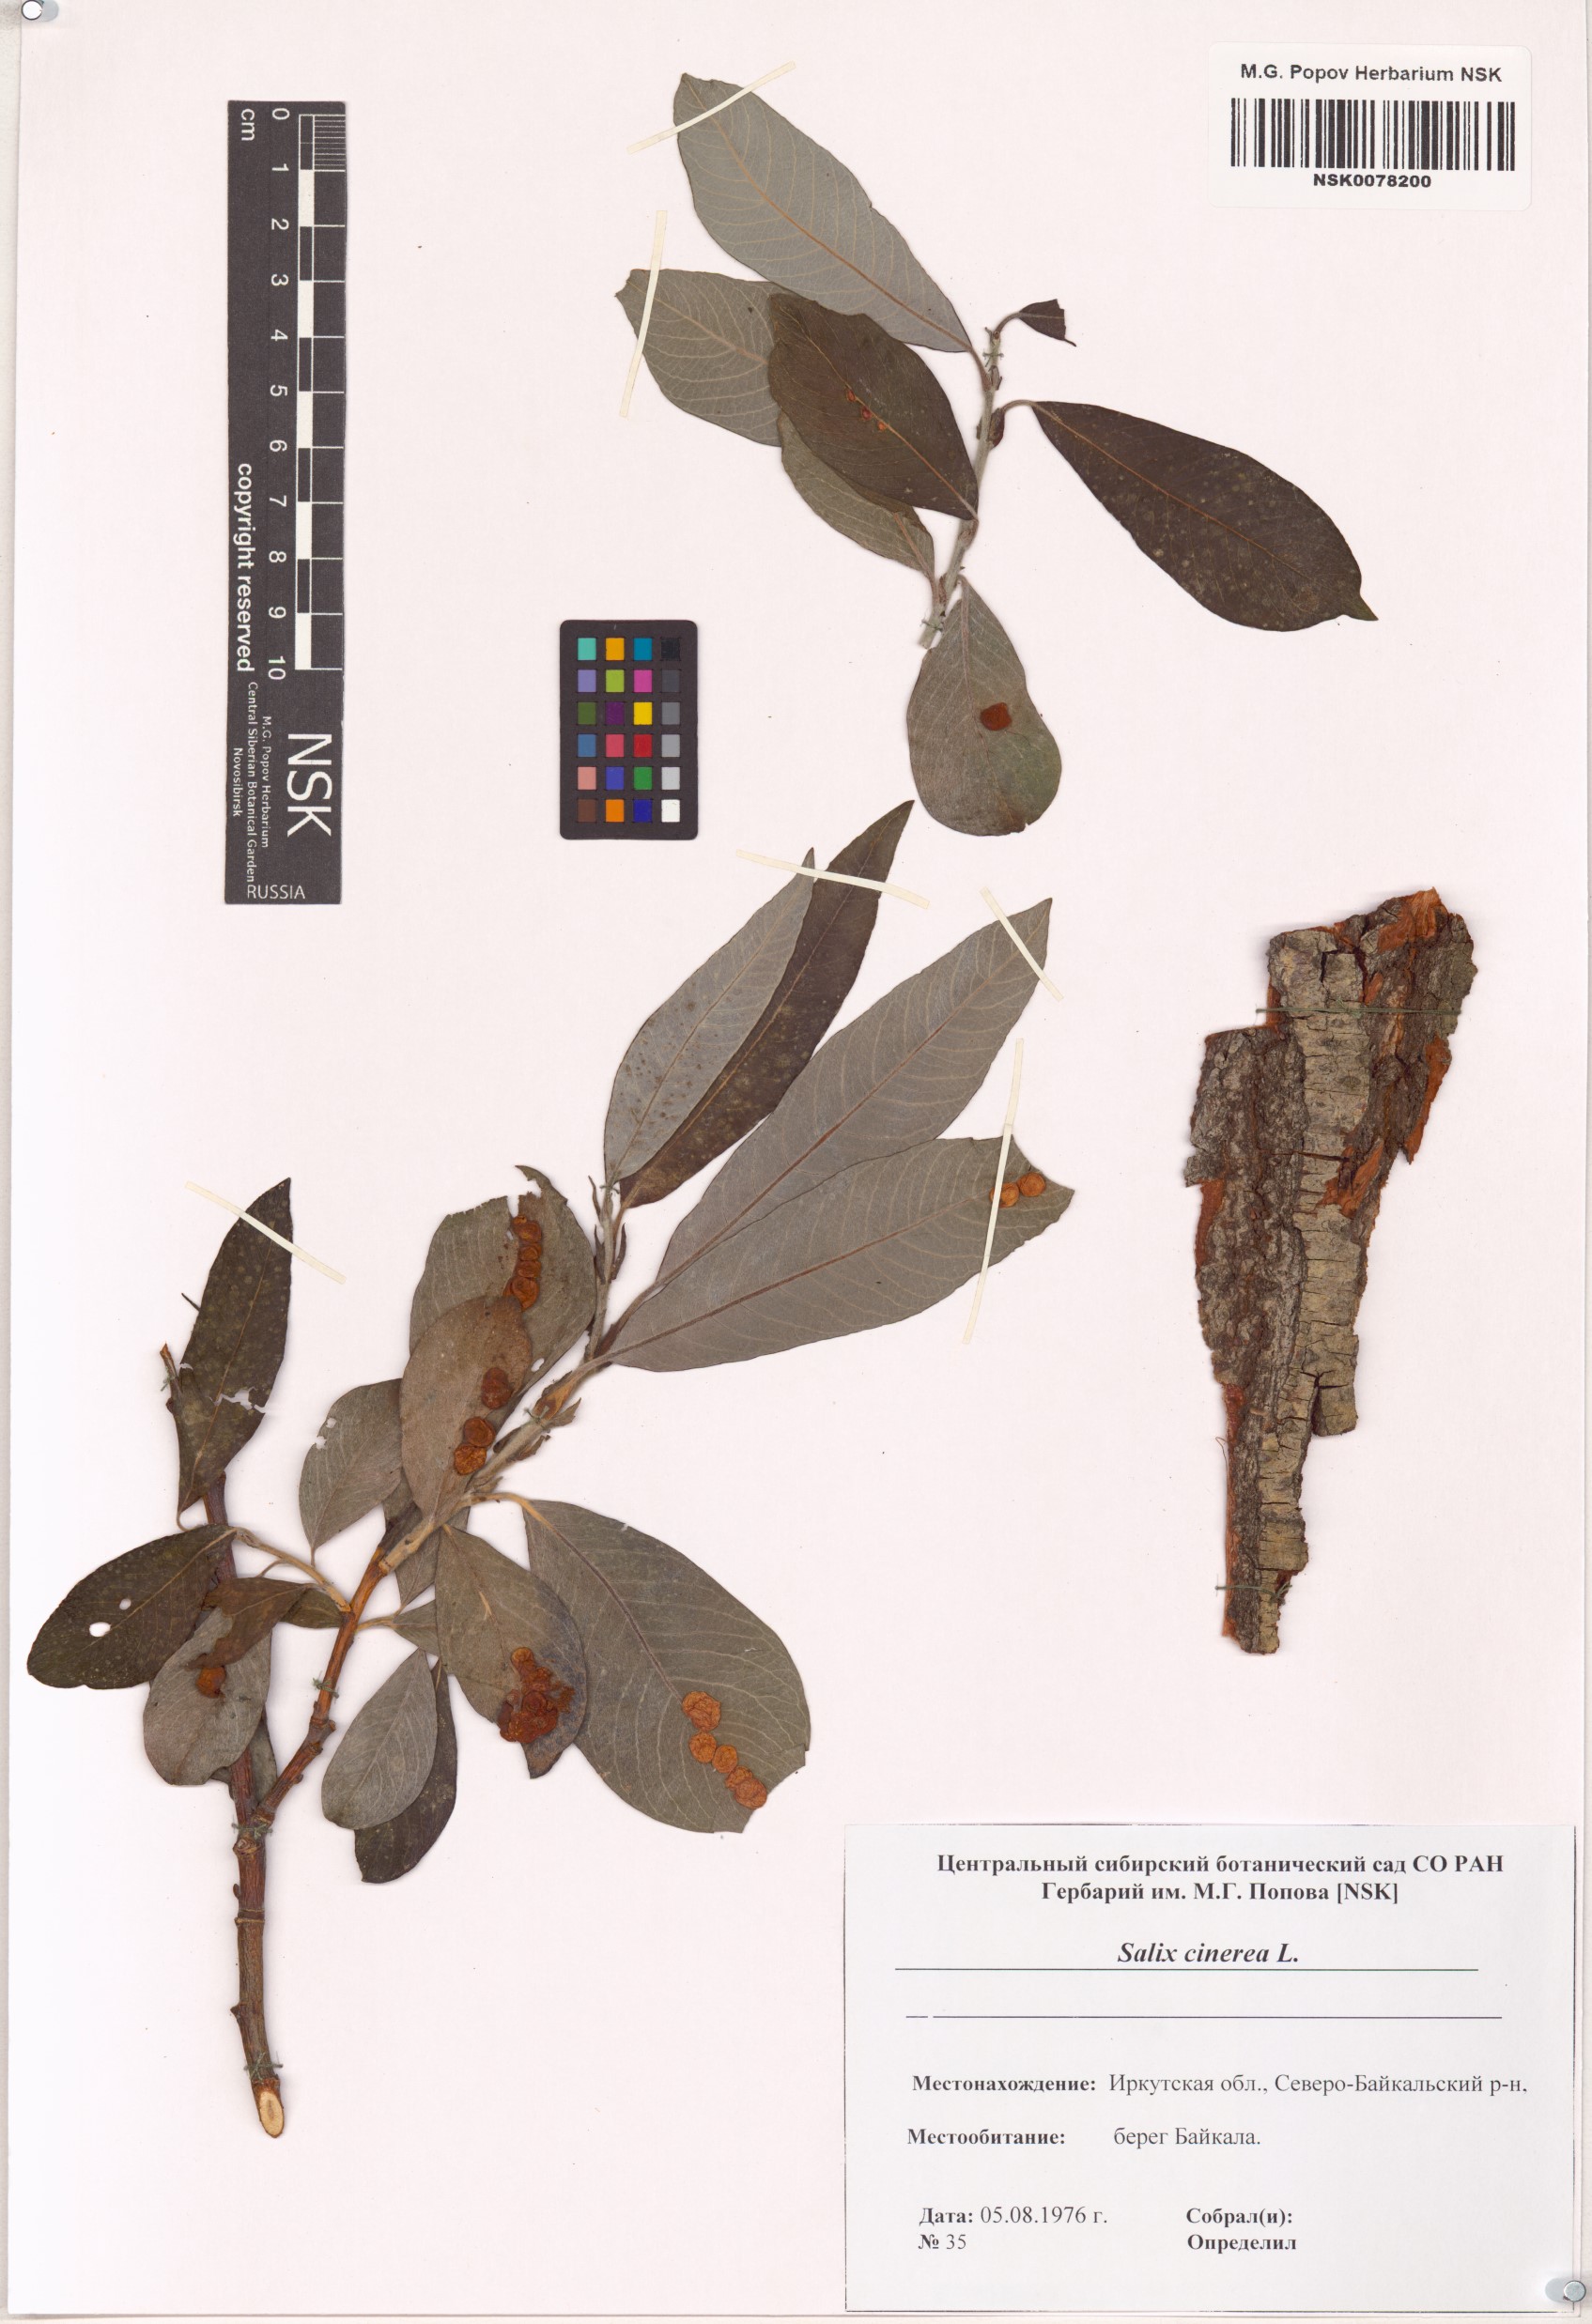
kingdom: Plantae
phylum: Tracheophyta
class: Magnoliopsida
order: Malpighiales
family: Salicaceae
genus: Salix
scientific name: Salix cinerea
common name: Common sallow
